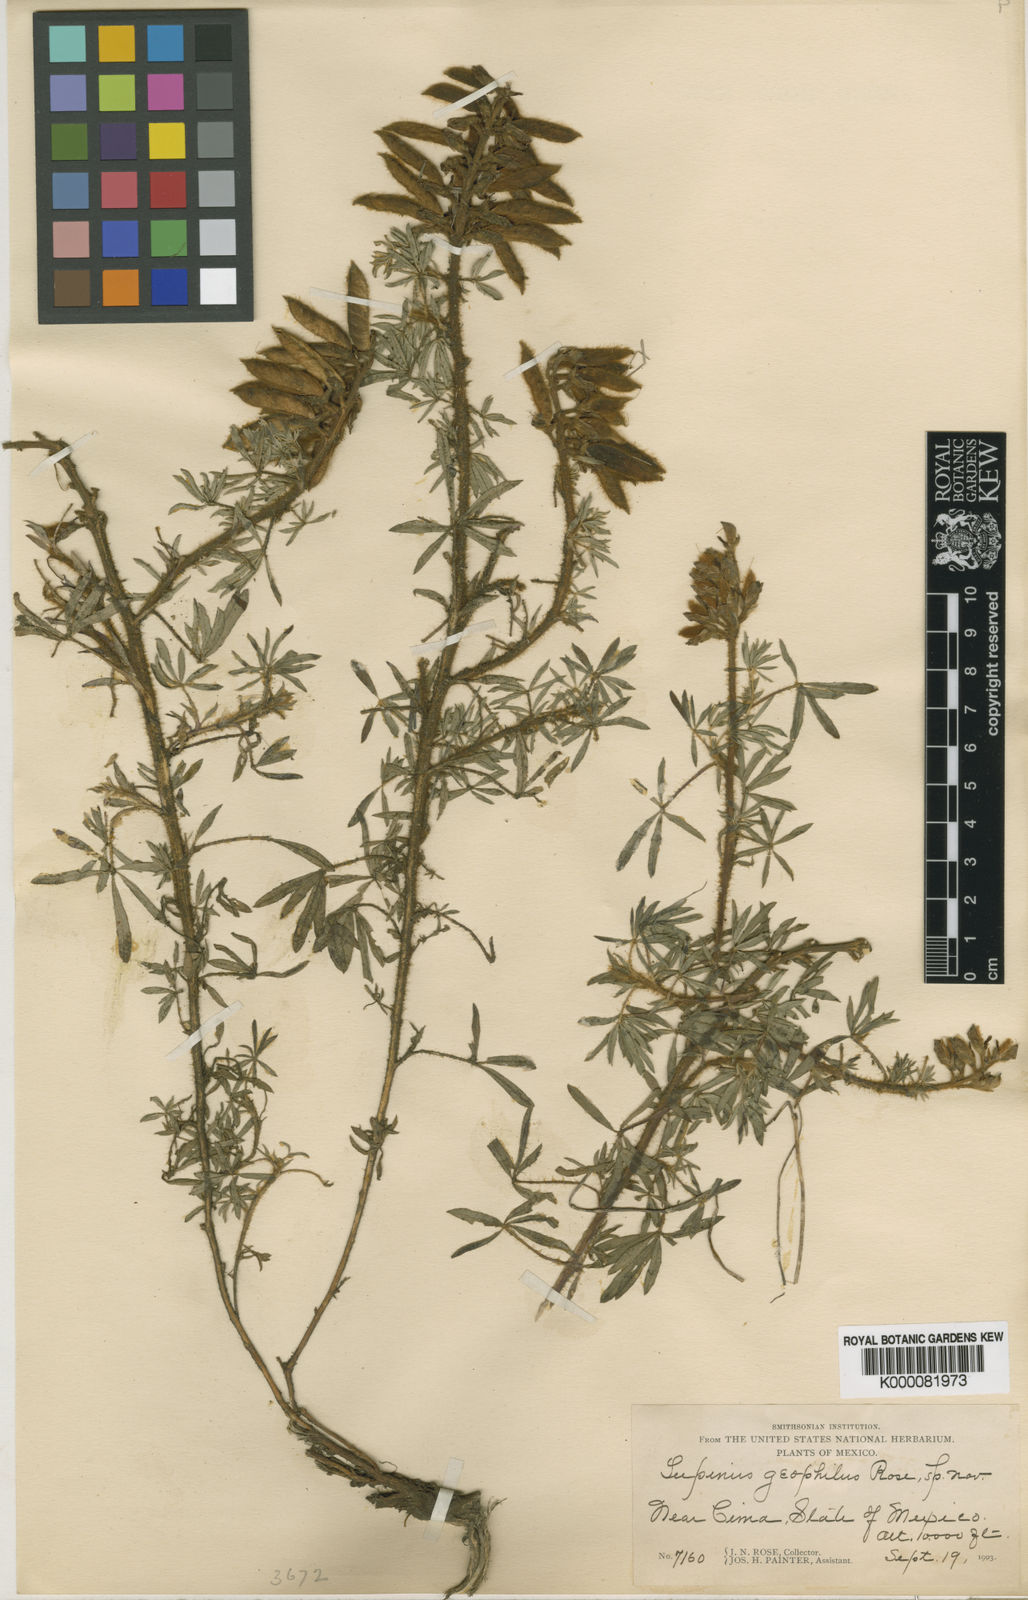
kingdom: Plantae
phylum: Tracheophyta
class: Magnoliopsida
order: Fabales
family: Fabaceae
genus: Lupinus
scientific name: Lupinus humifusus
